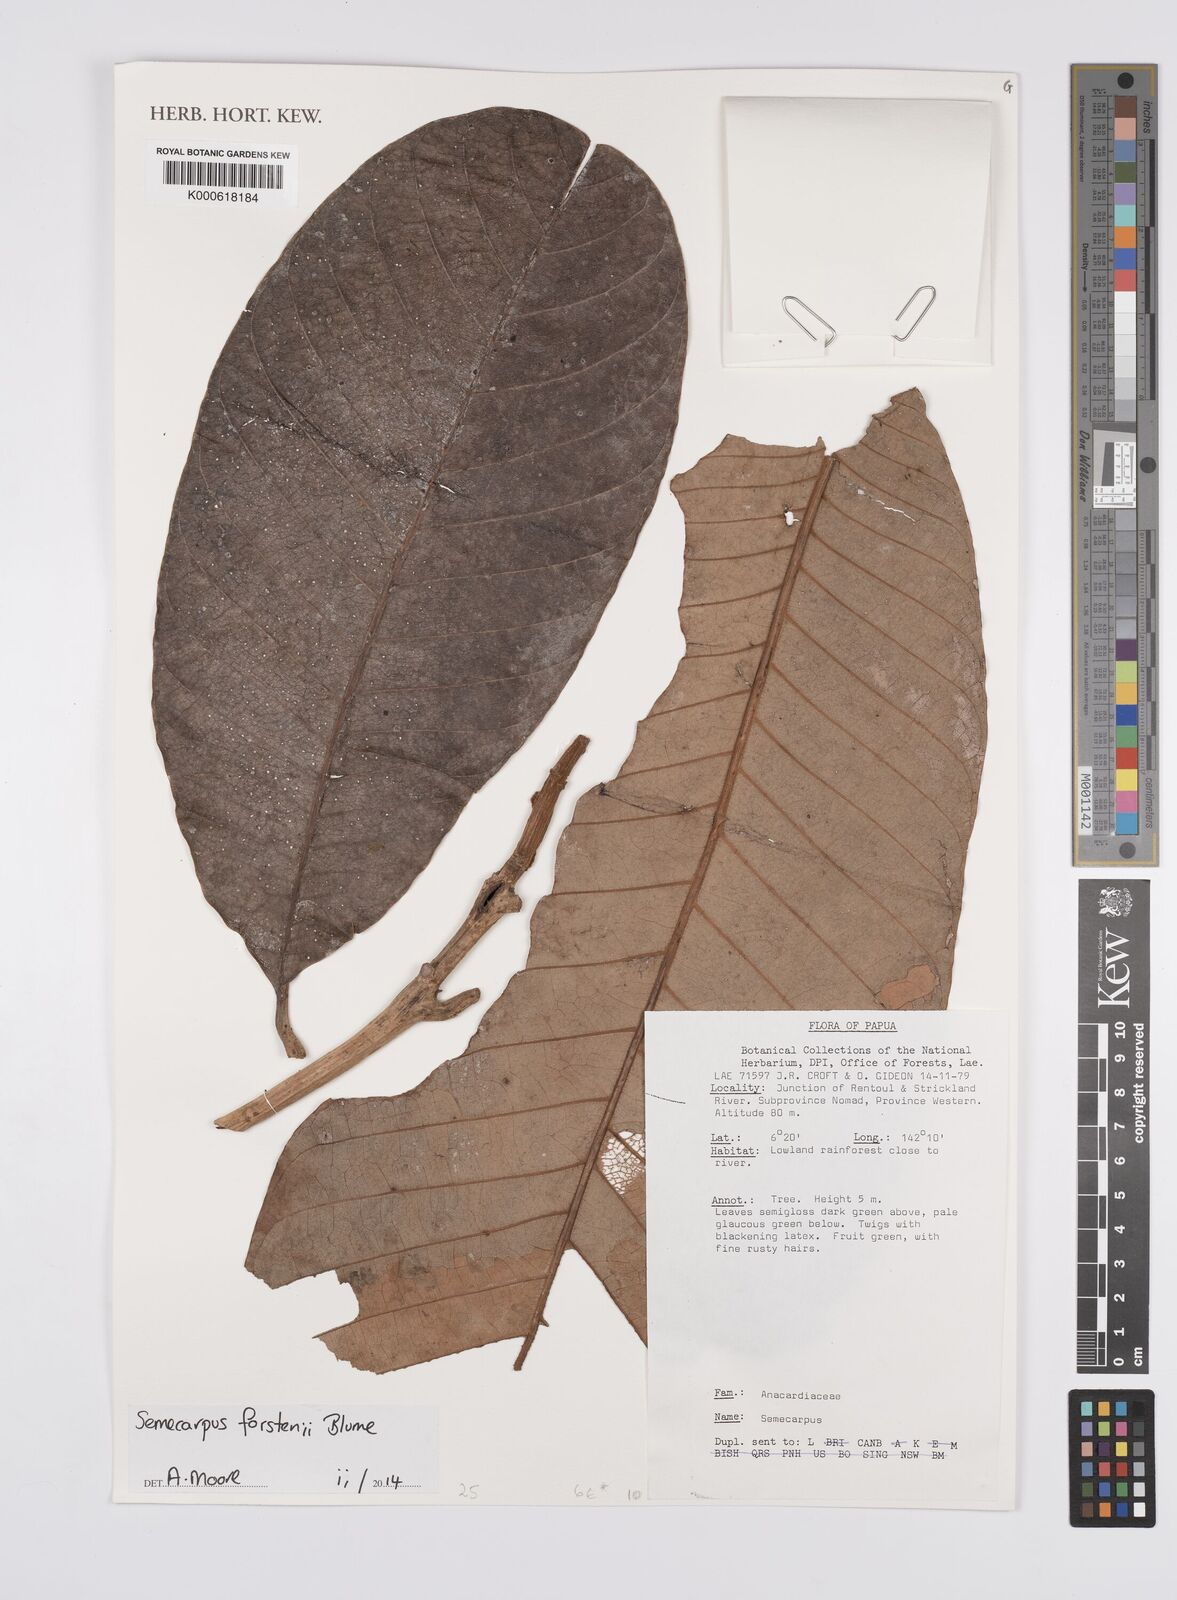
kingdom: Plantae
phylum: Tracheophyta
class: Magnoliopsida
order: Sapindales
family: Anacardiaceae
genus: Semecarpus
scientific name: Semecarpus forstenii
